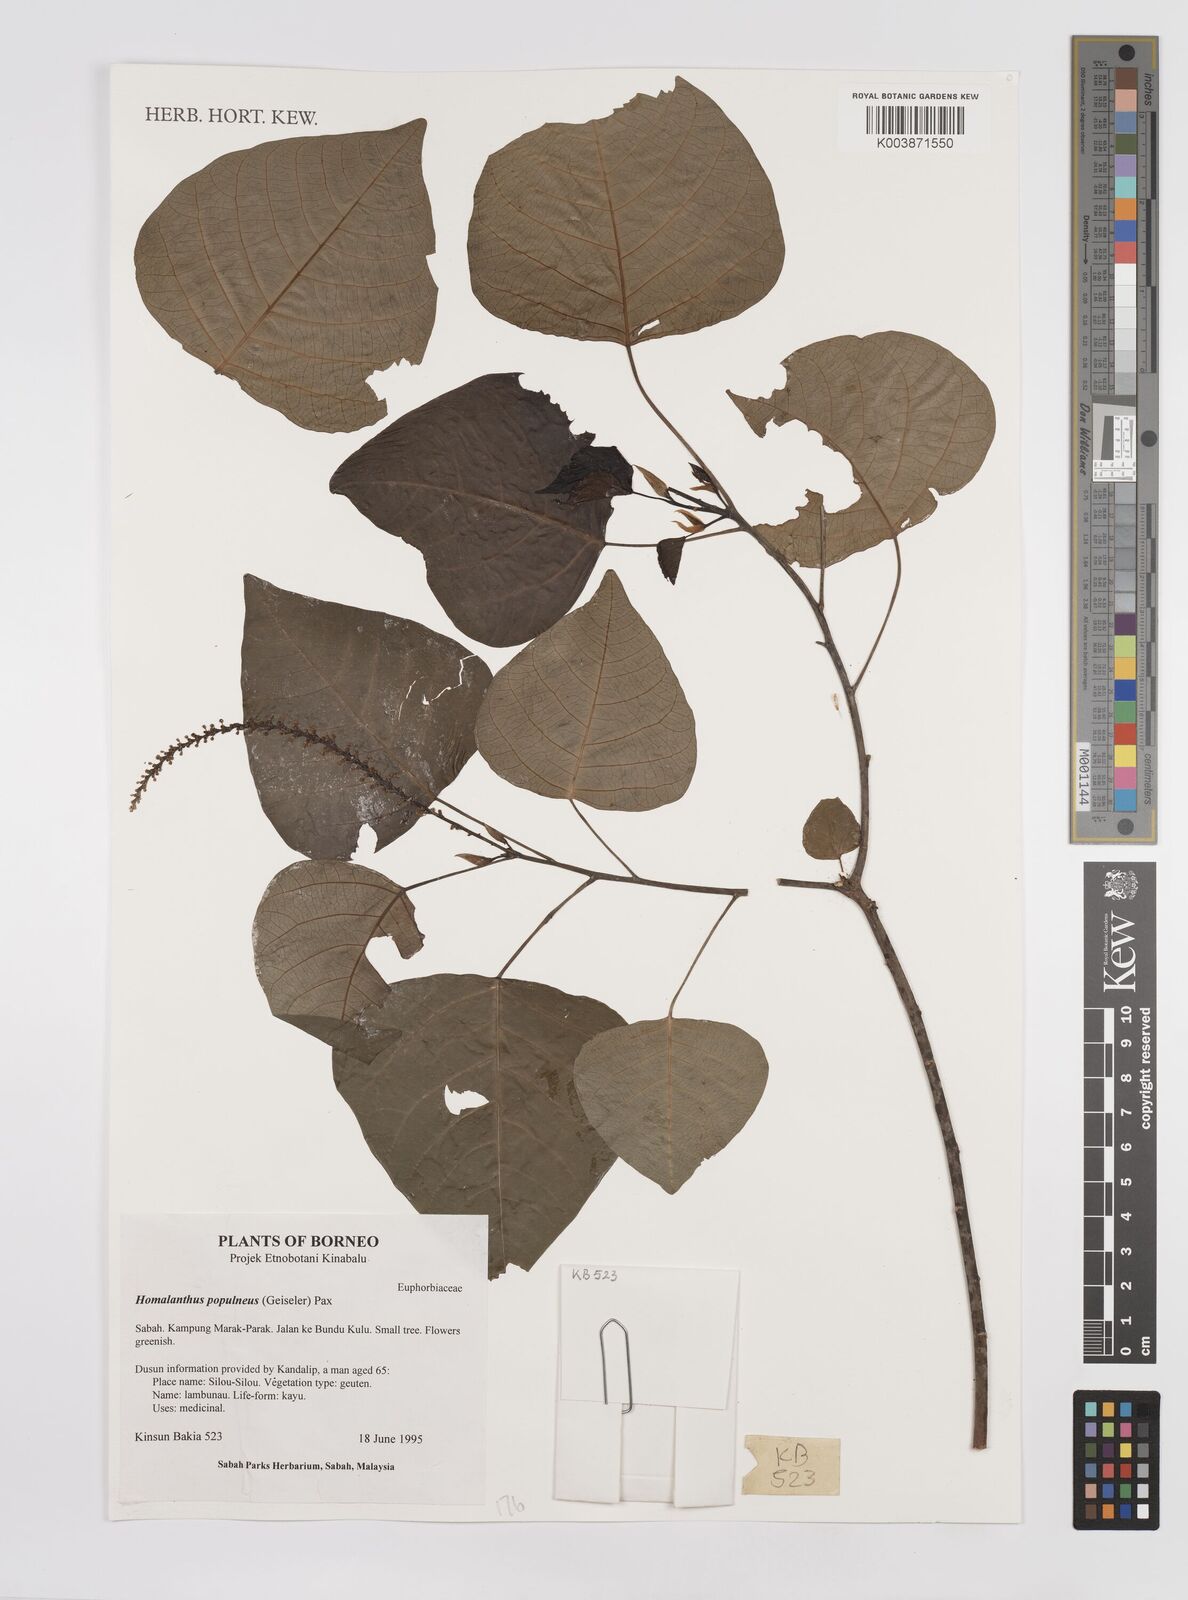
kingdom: Plantae
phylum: Tracheophyta
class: Magnoliopsida
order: Malpighiales
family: Euphorbiaceae
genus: Homalanthus
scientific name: Homalanthus populneus
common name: Spurge
